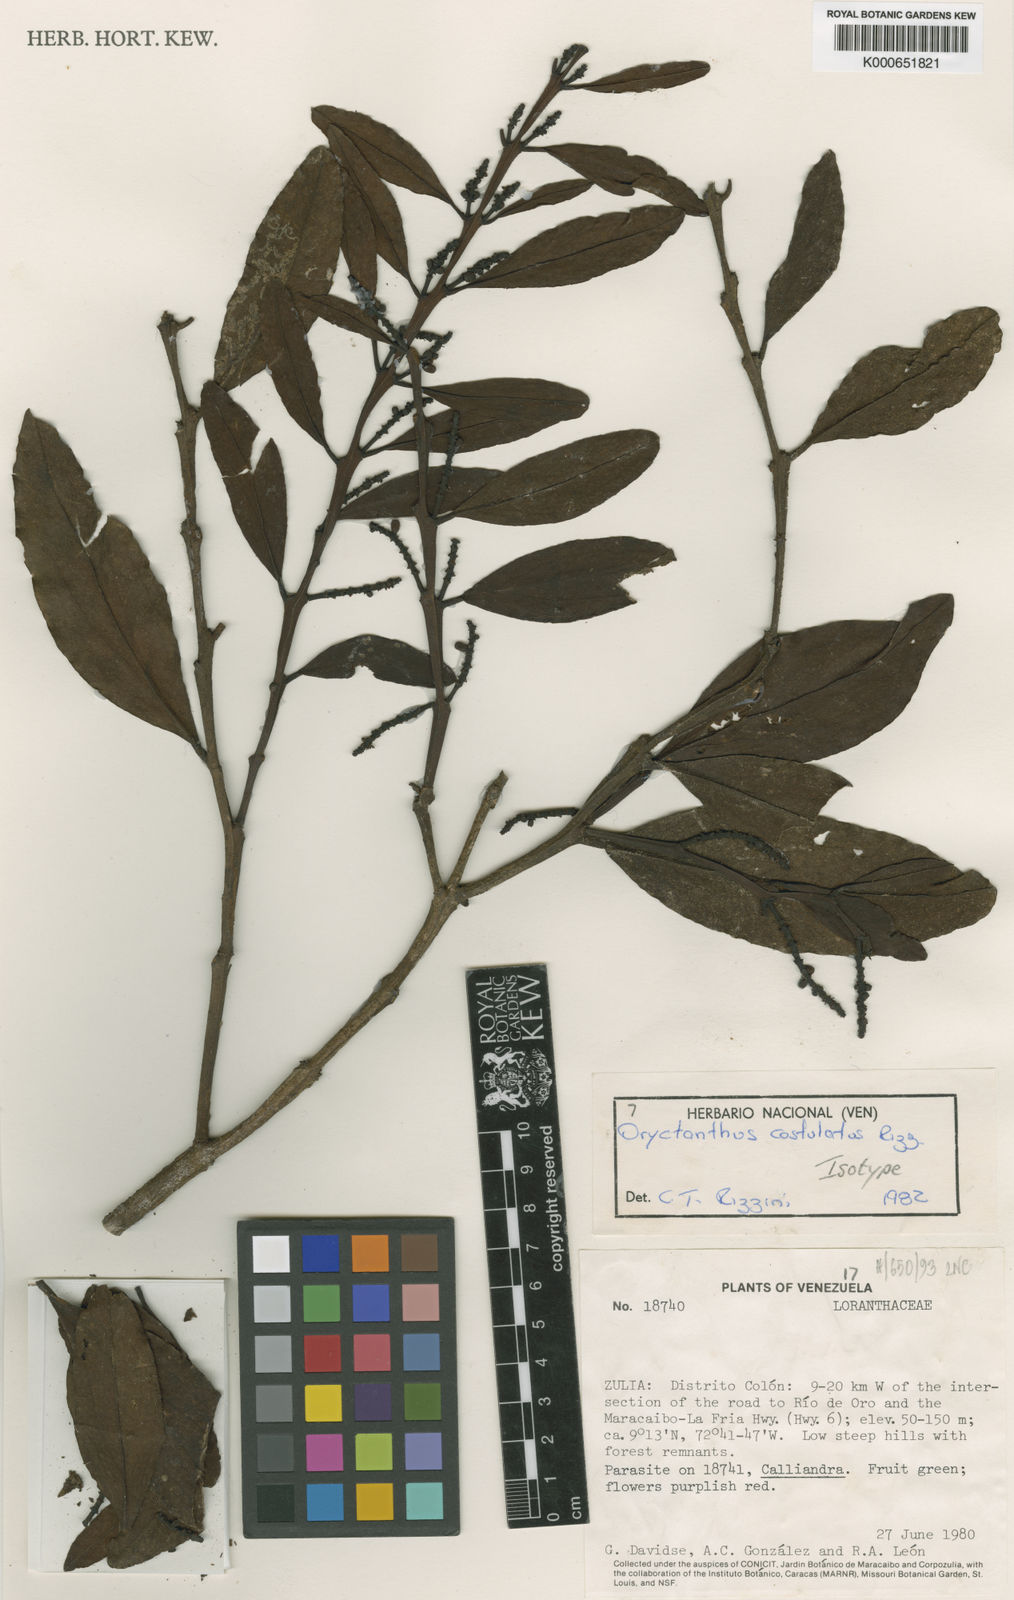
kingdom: Plantae
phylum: Tracheophyta
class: Magnoliopsida
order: Santalales
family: Loranthaceae
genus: Oryctanthus
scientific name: Oryctanthus costulatus
